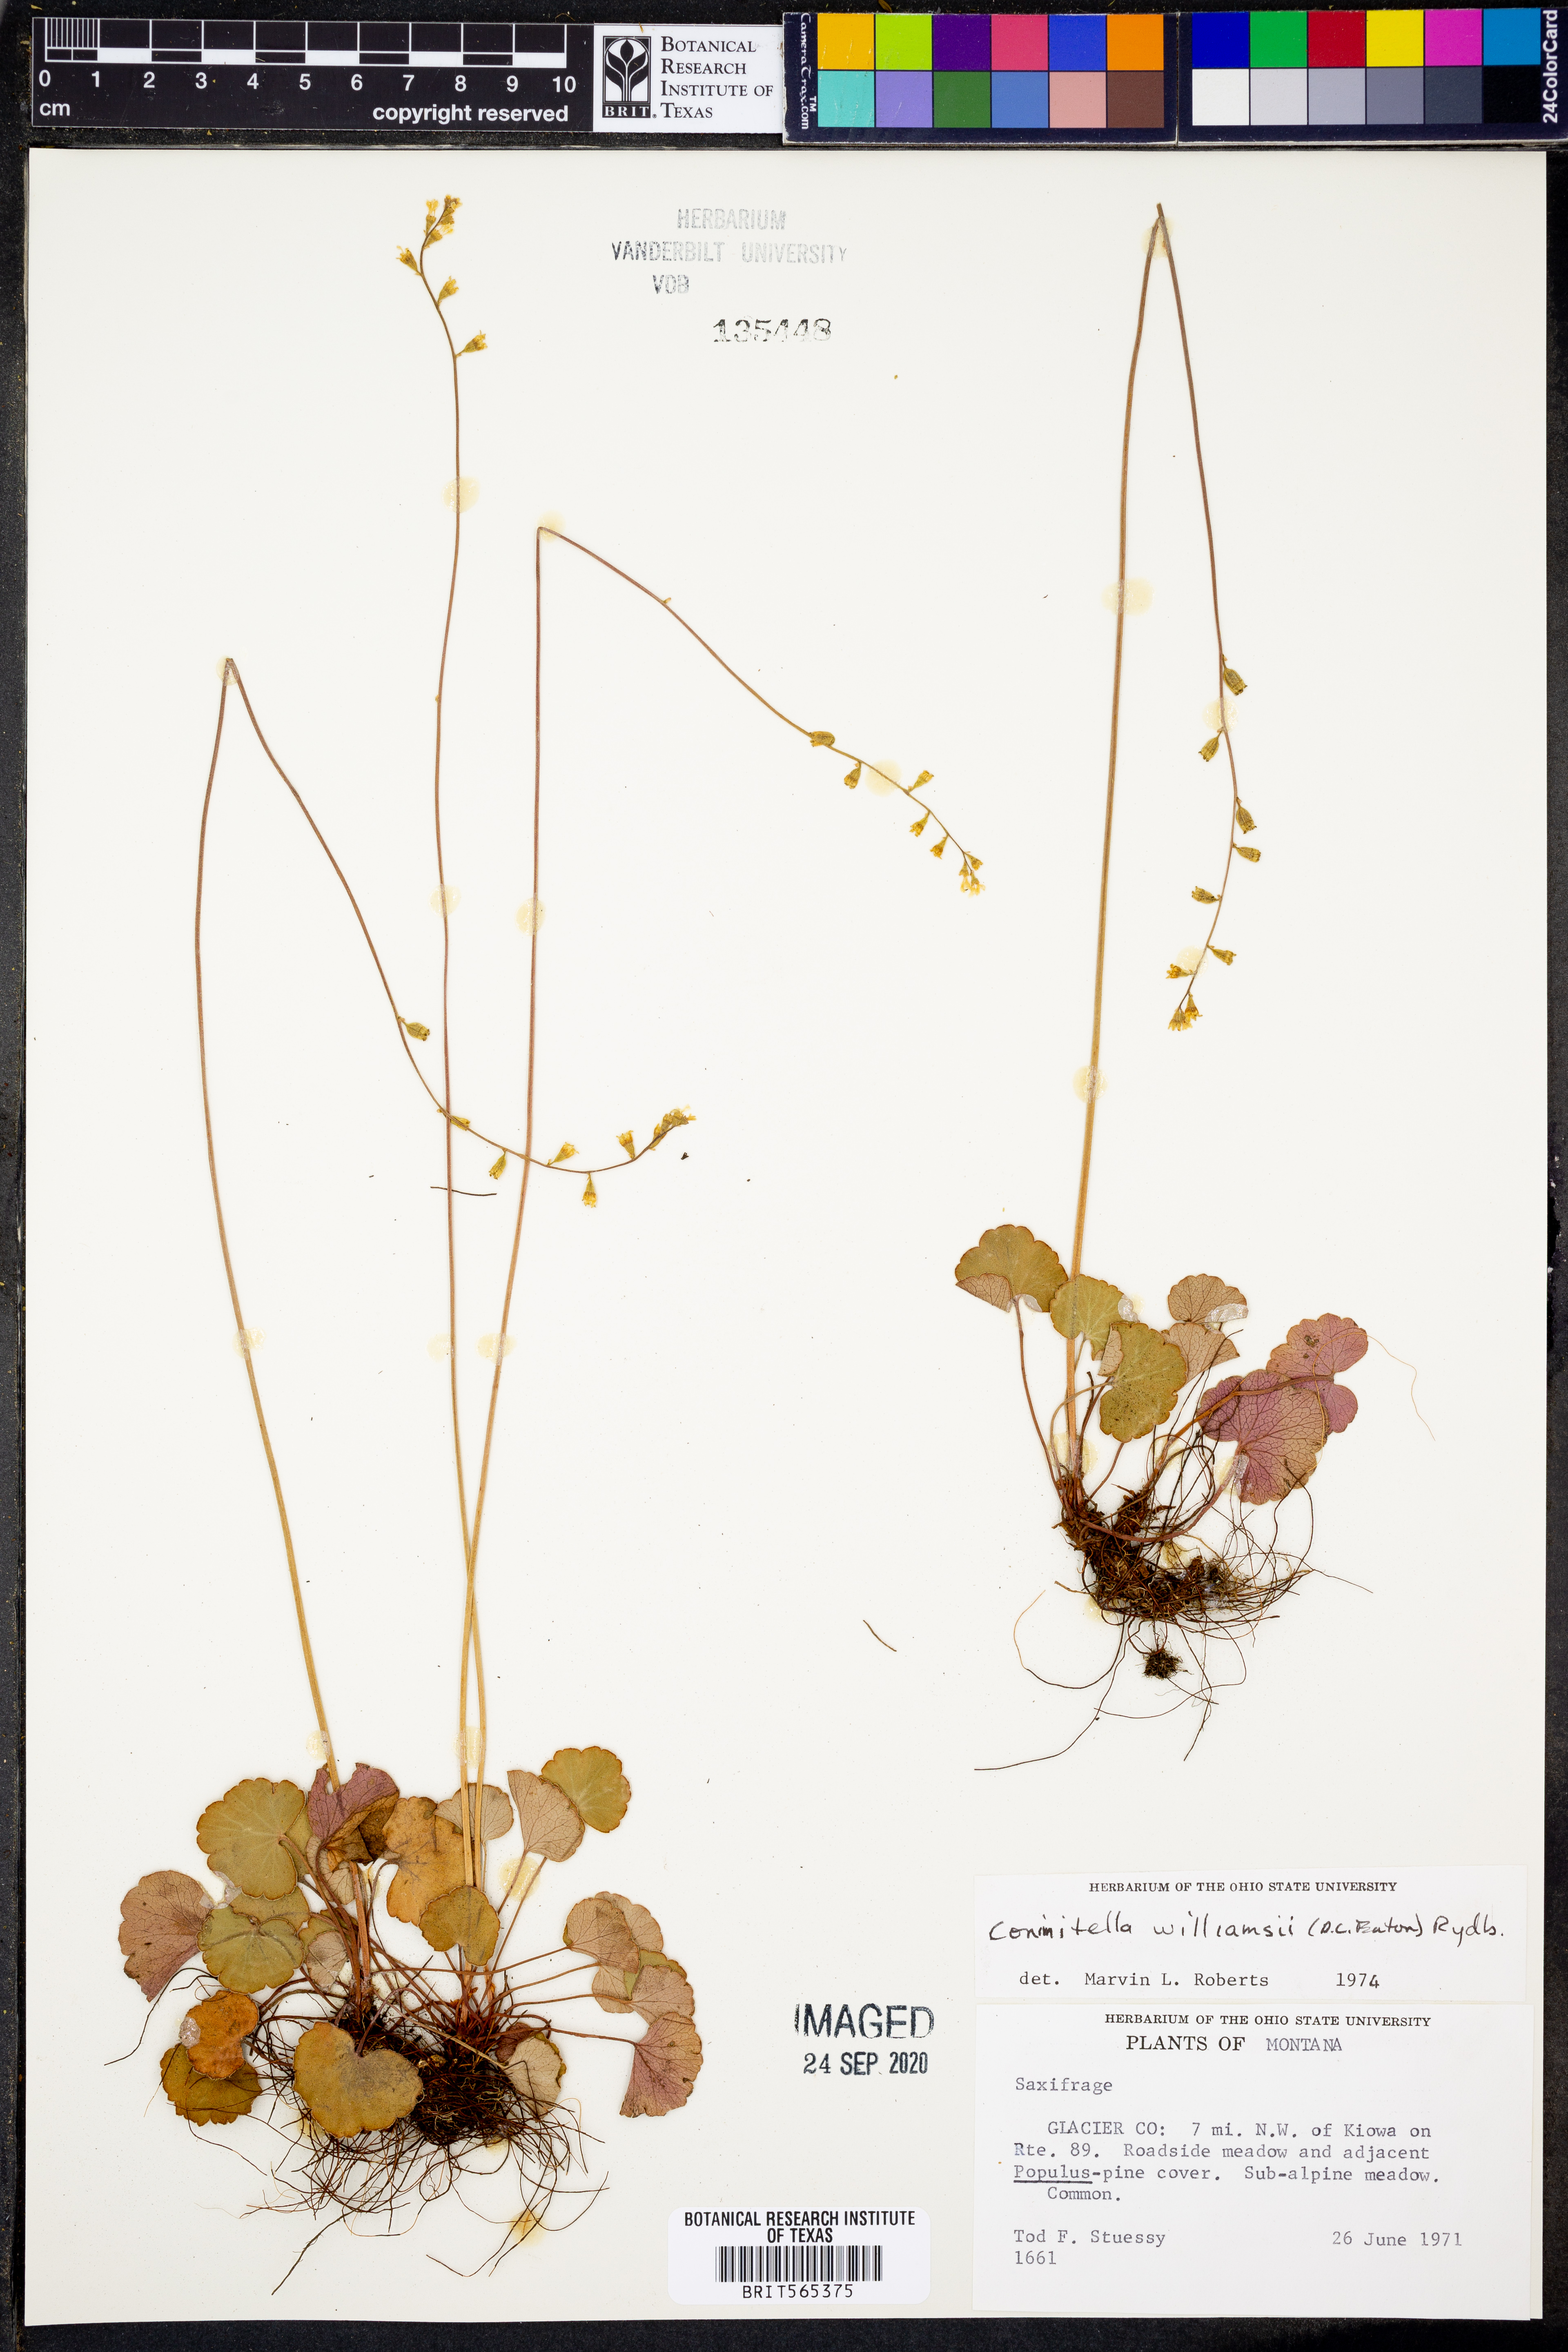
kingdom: Plantae
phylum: Tracheophyta
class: Magnoliopsida
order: Saxifragales
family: Saxifragaceae
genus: Conimitella
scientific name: Conimitella williamsii
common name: William's conimitella
